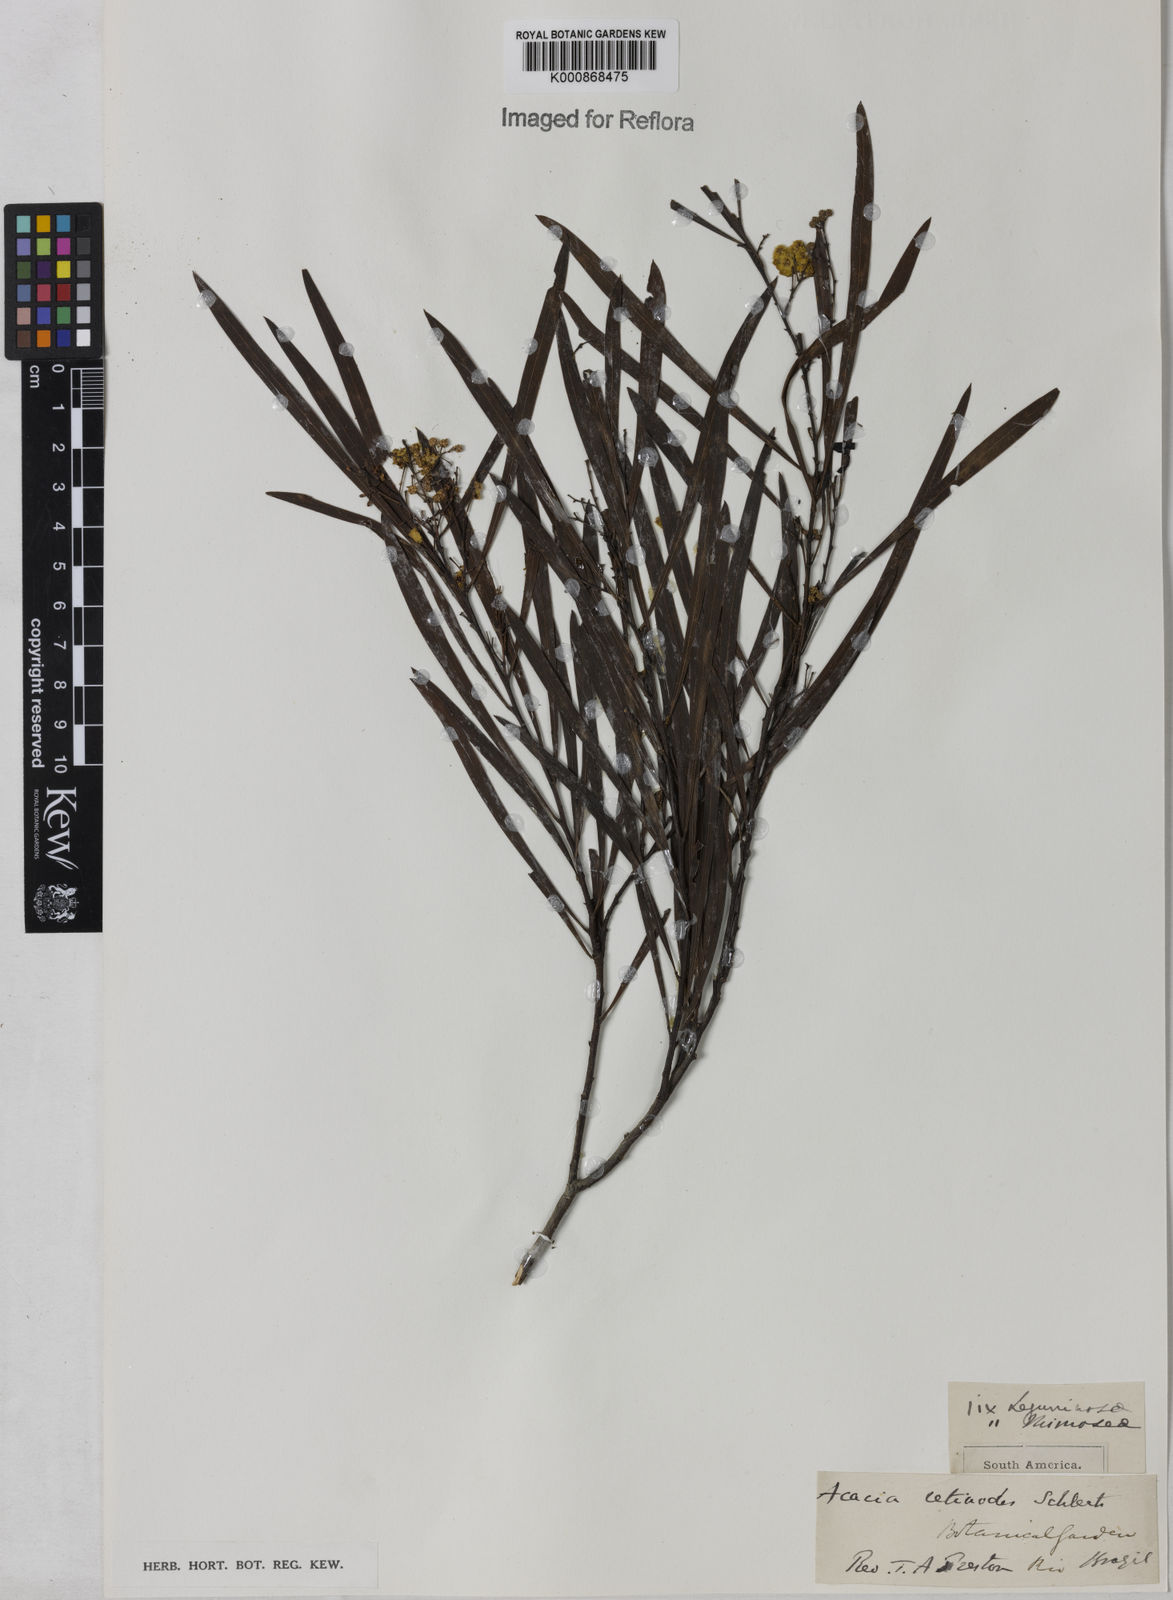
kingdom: Plantae
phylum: Tracheophyta
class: Magnoliopsida
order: Fabales
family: Fabaceae
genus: Acacia
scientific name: Acacia retinodes
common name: Silver wattle
